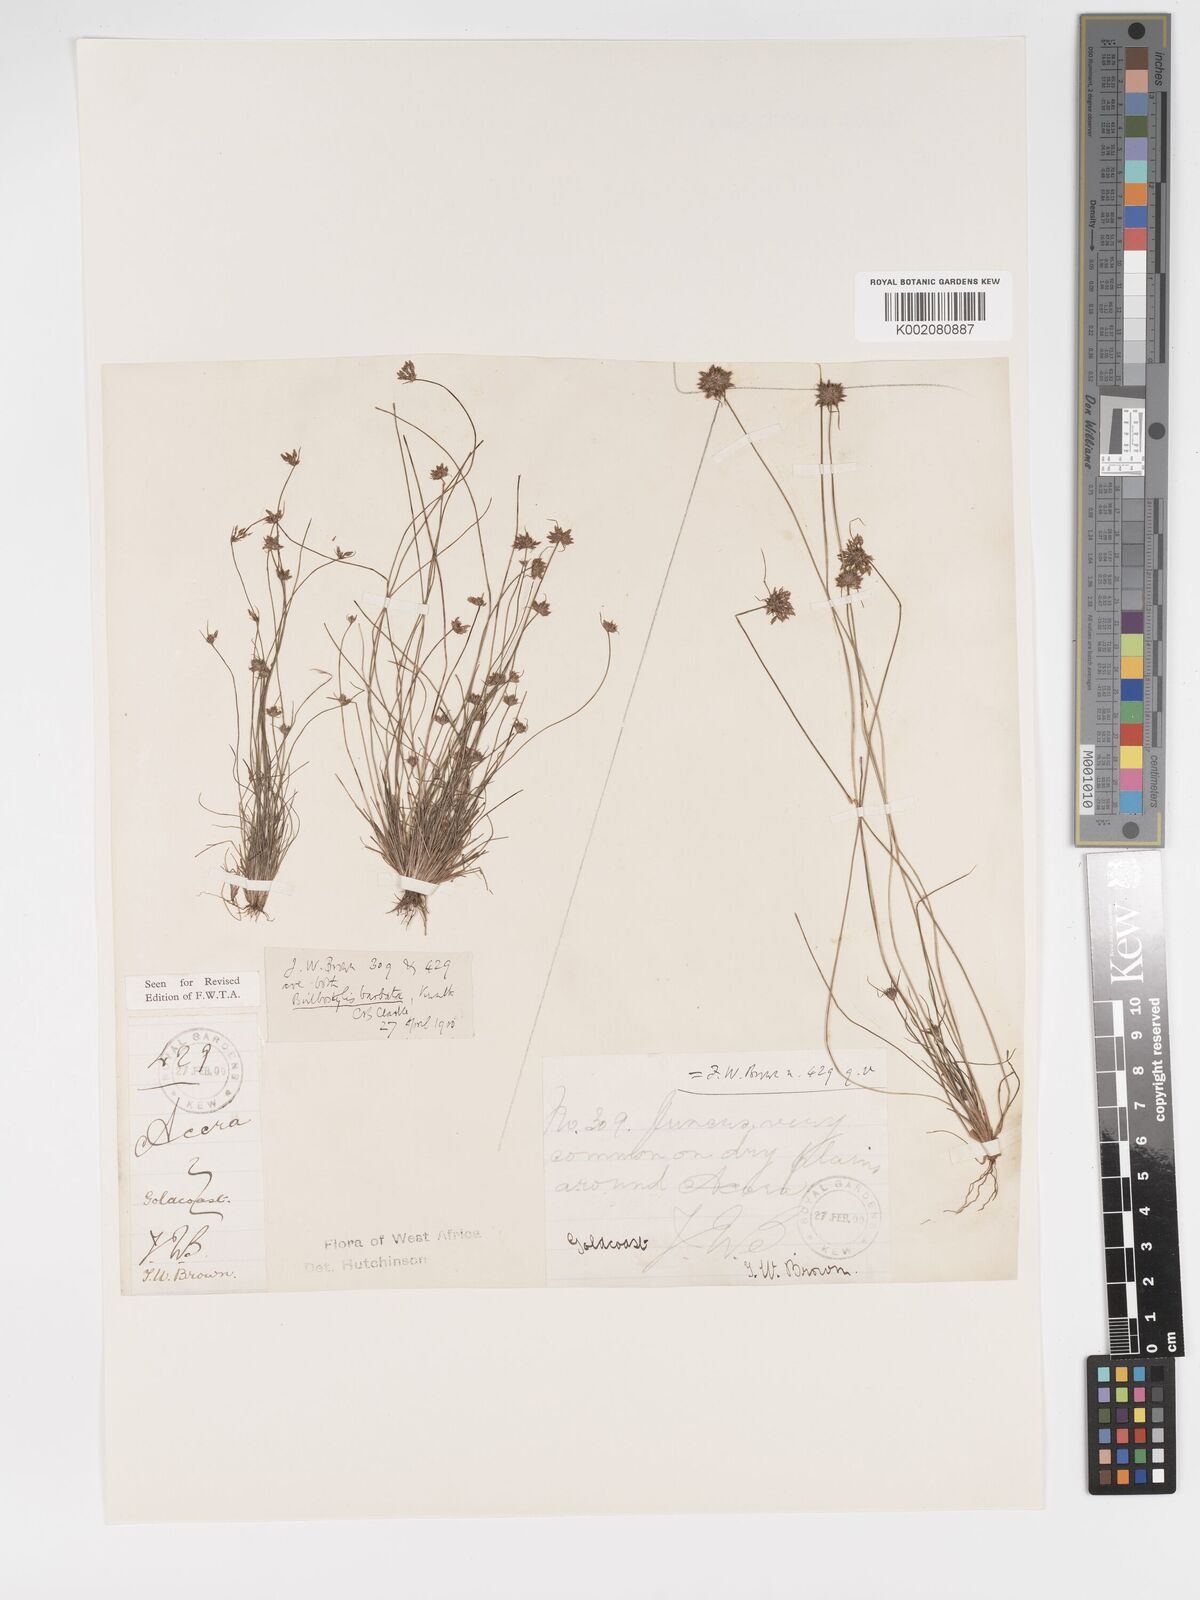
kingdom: Plantae
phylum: Tracheophyta
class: Liliopsida
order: Poales
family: Cyperaceae
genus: Bulbostylis
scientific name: Bulbostylis barbata
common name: Watergrass
